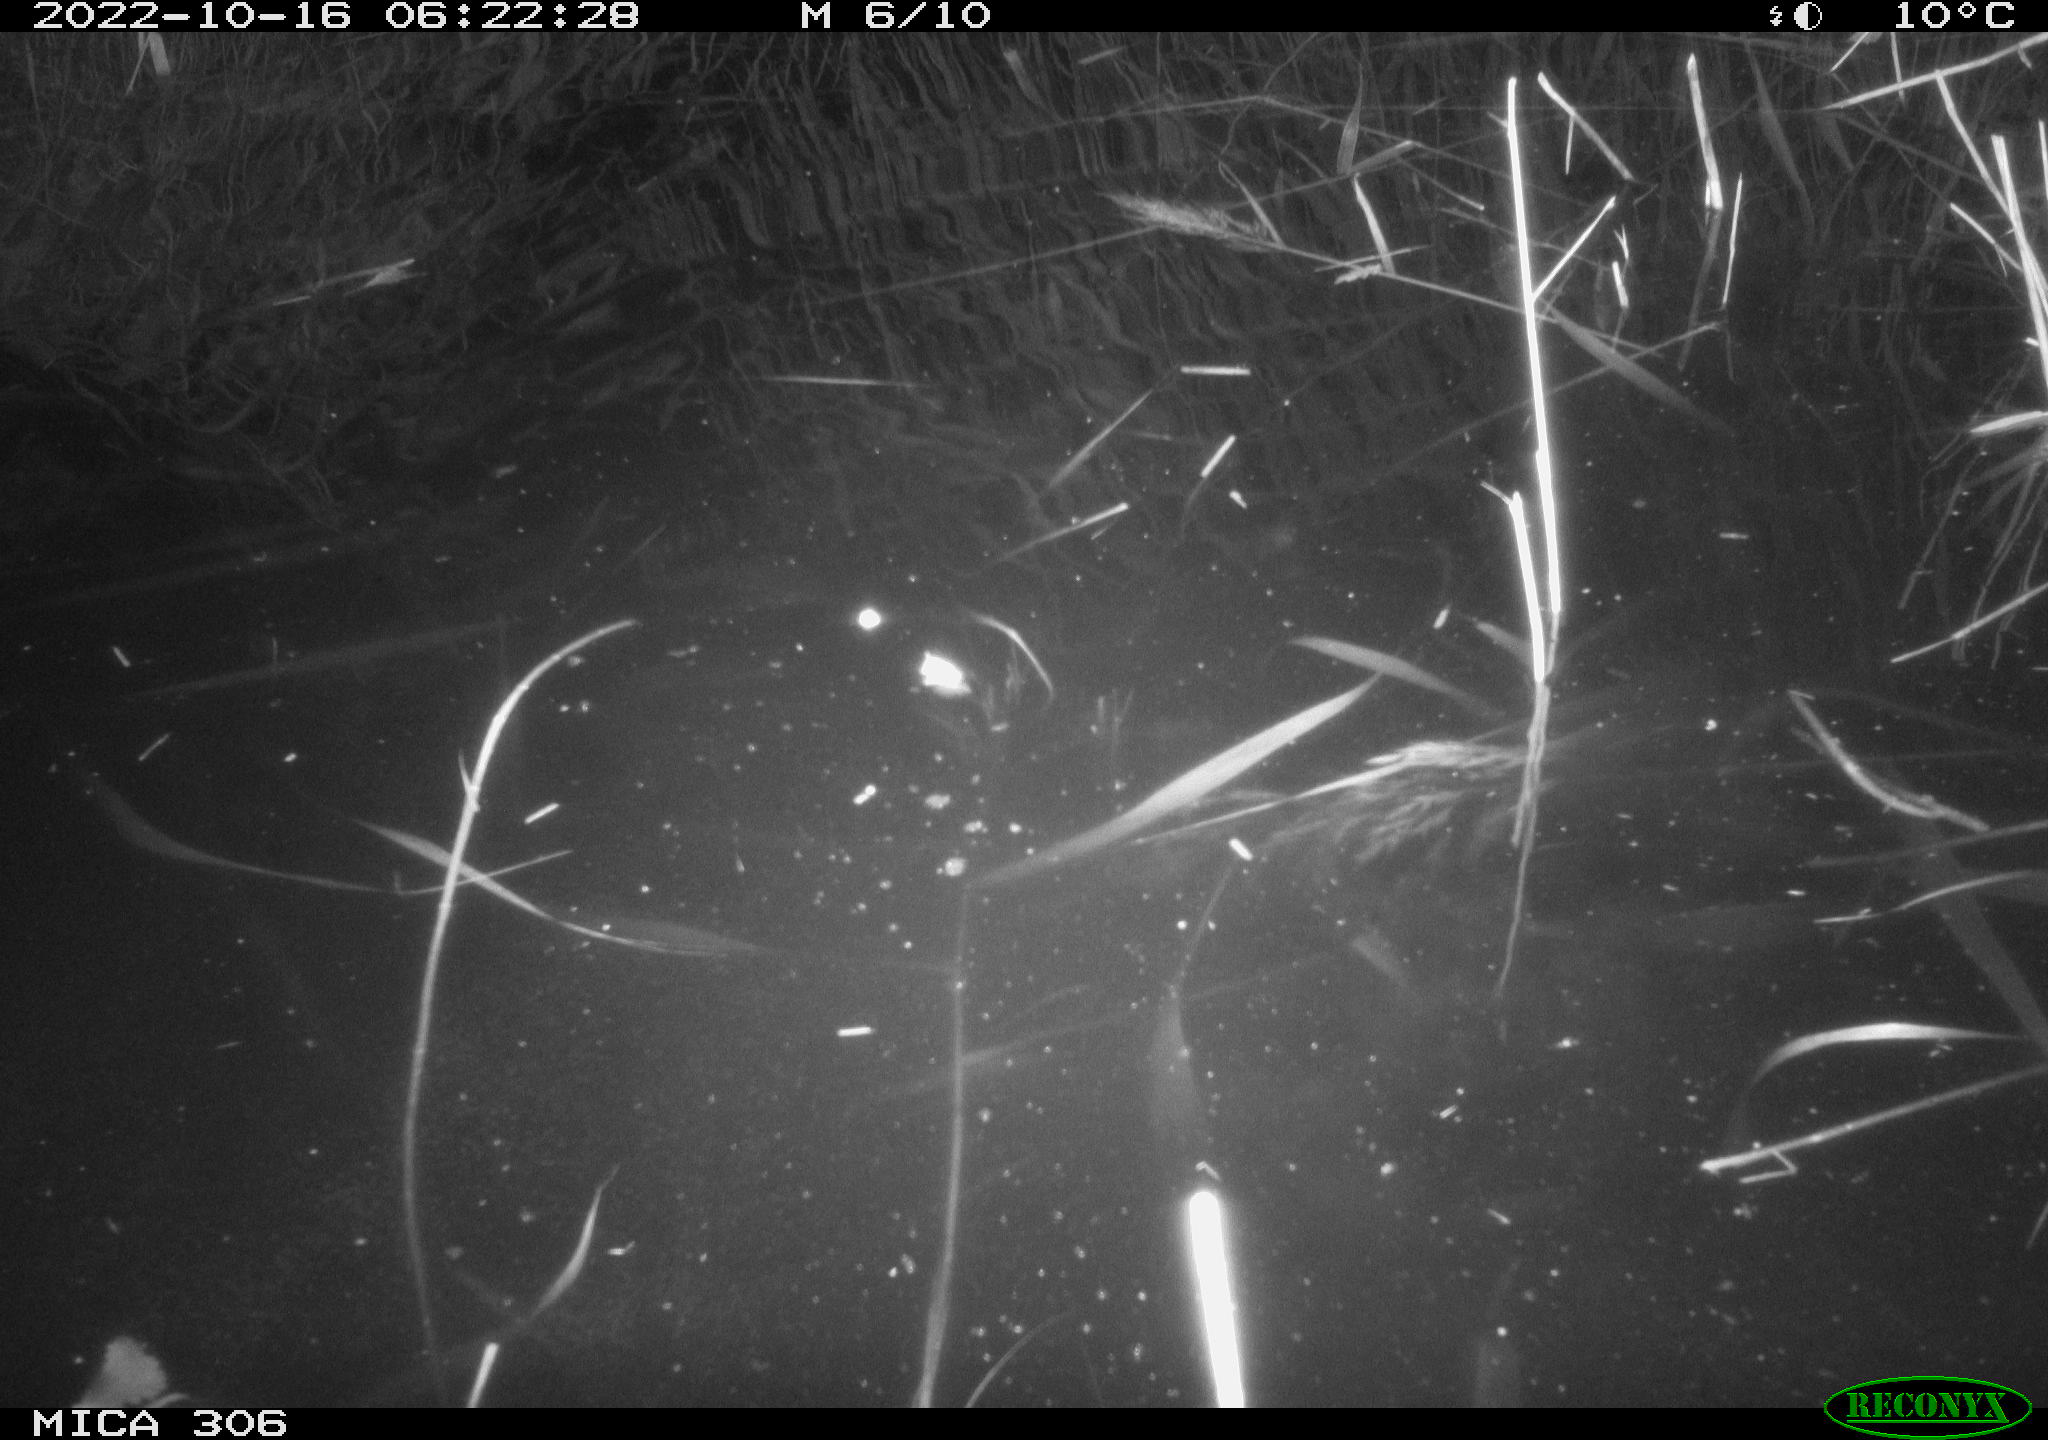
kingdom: Animalia
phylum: Chordata
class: Mammalia
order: Rodentia
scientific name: Rodentia
